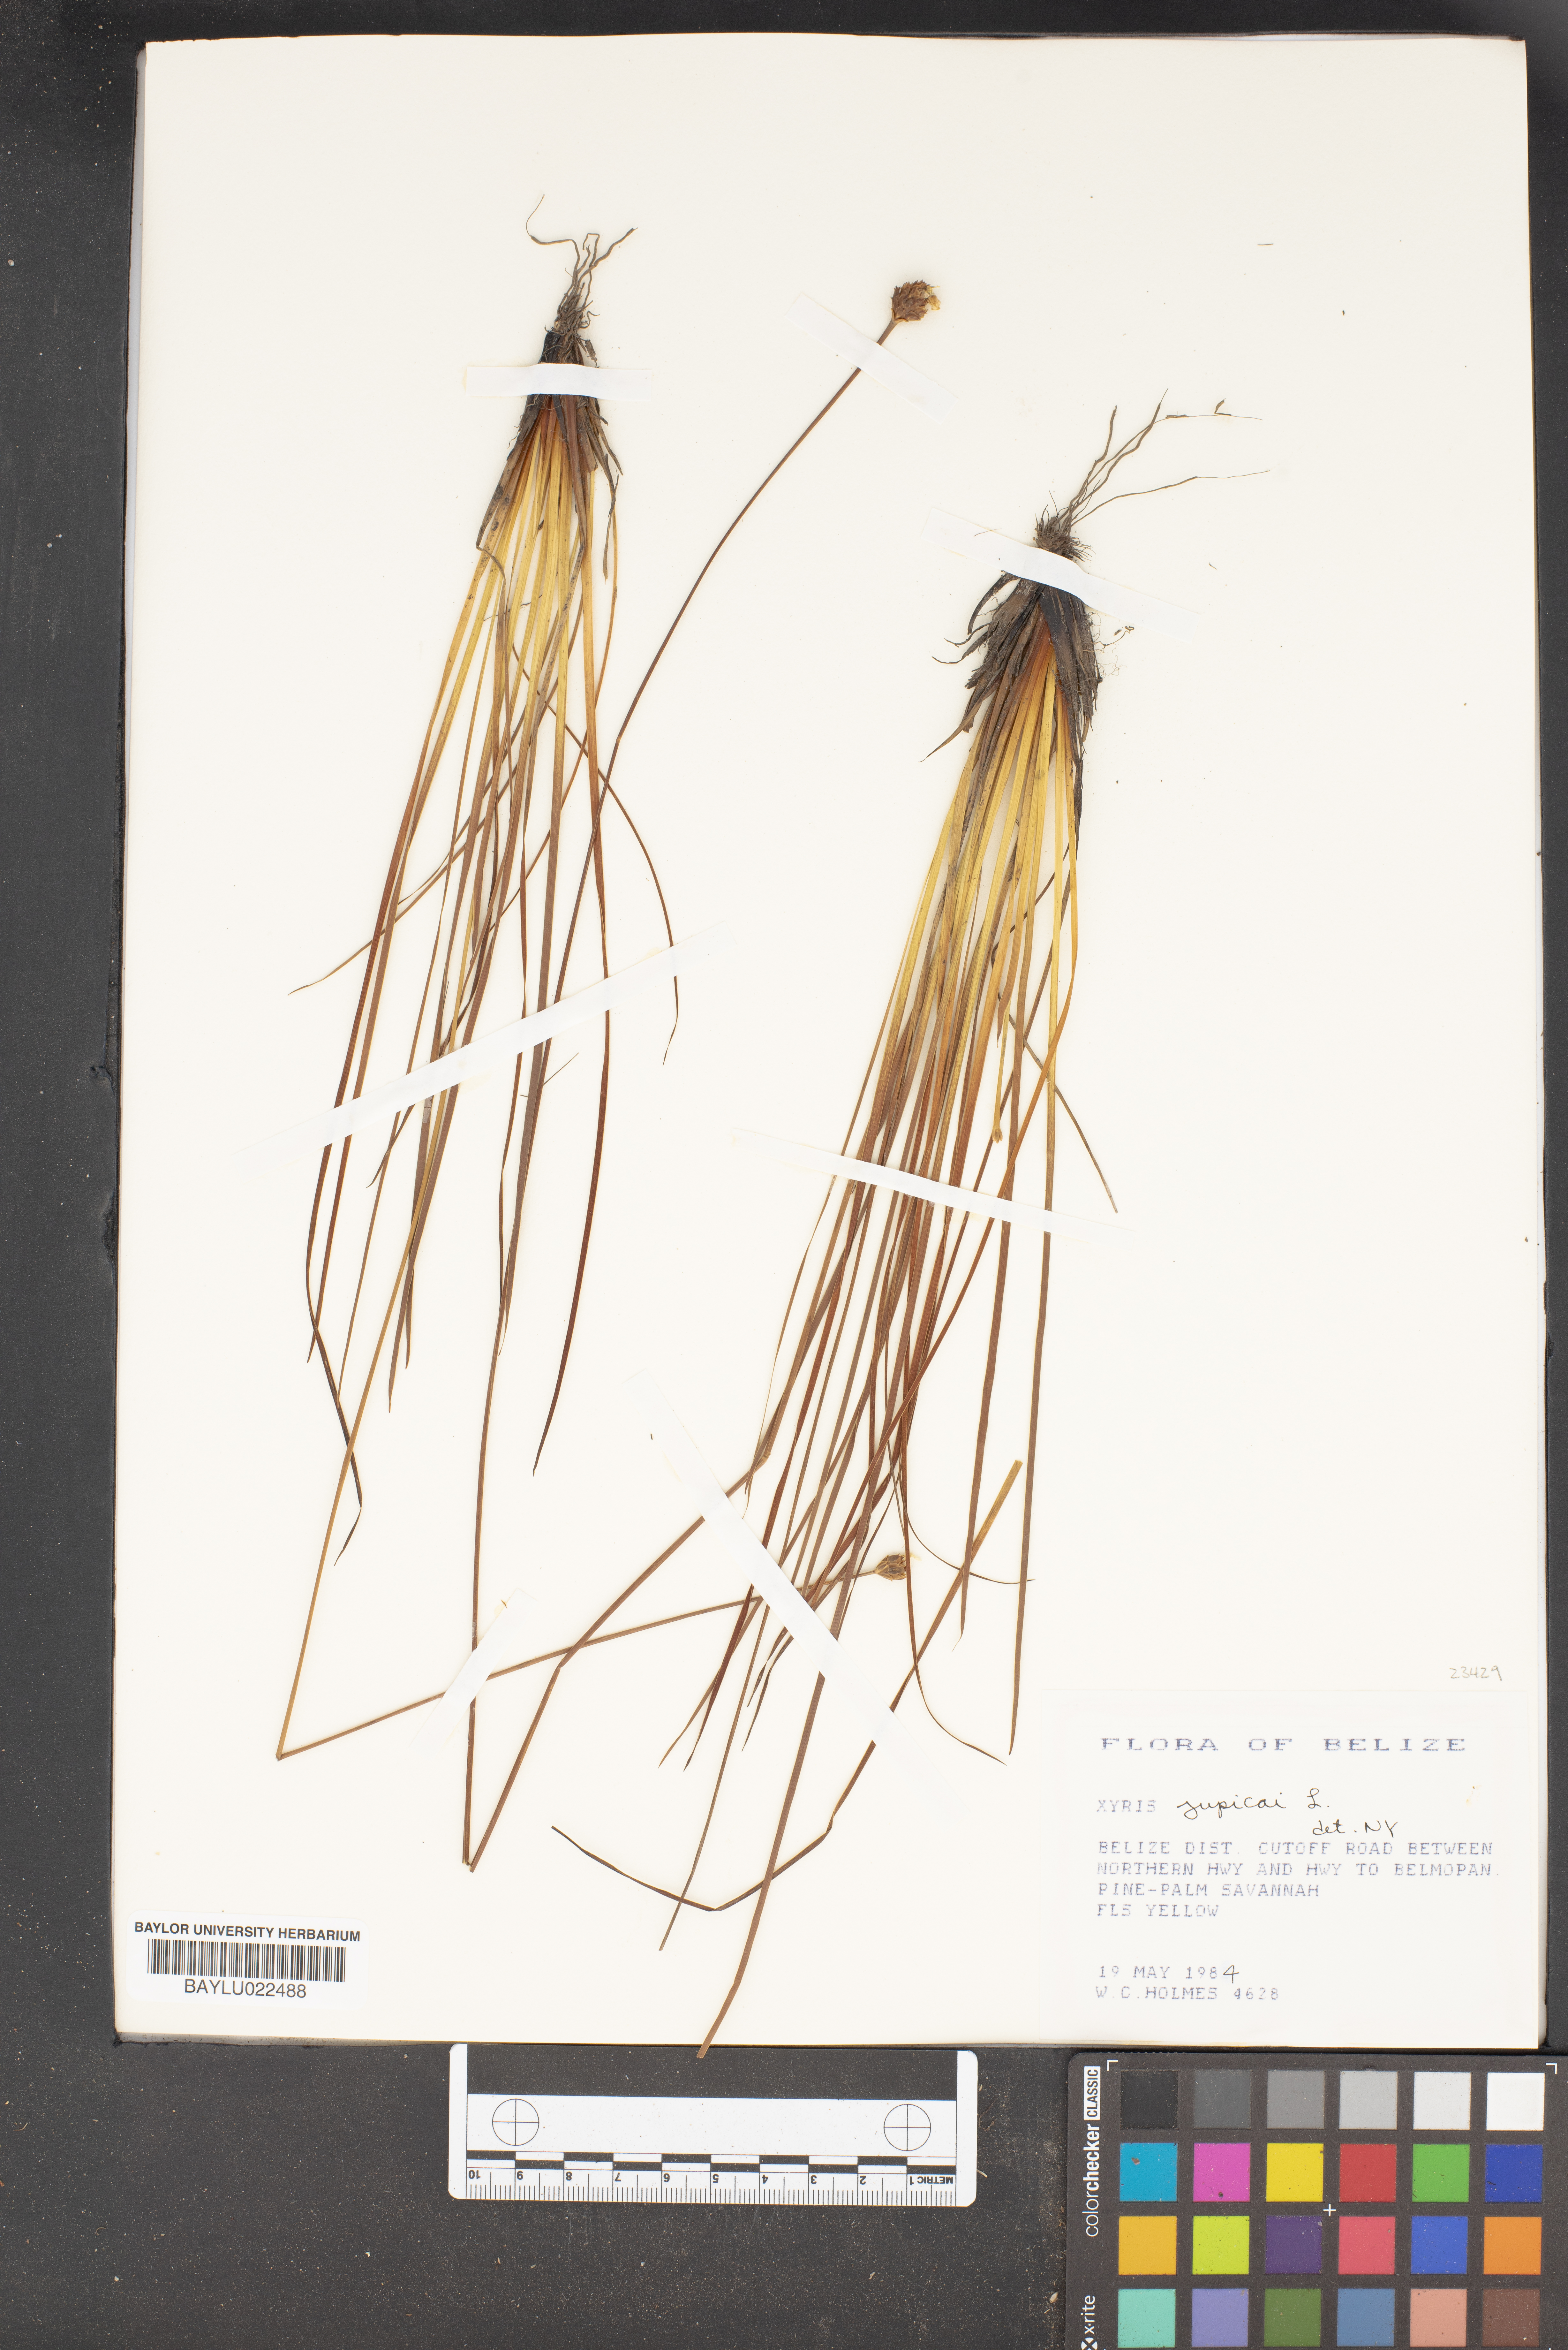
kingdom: Plantae
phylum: Tracheophyta
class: Liliopsida
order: Poales
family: Xyridaceae
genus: Xyris
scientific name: Xyris jupicai
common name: Richard's yelloweyed grass
